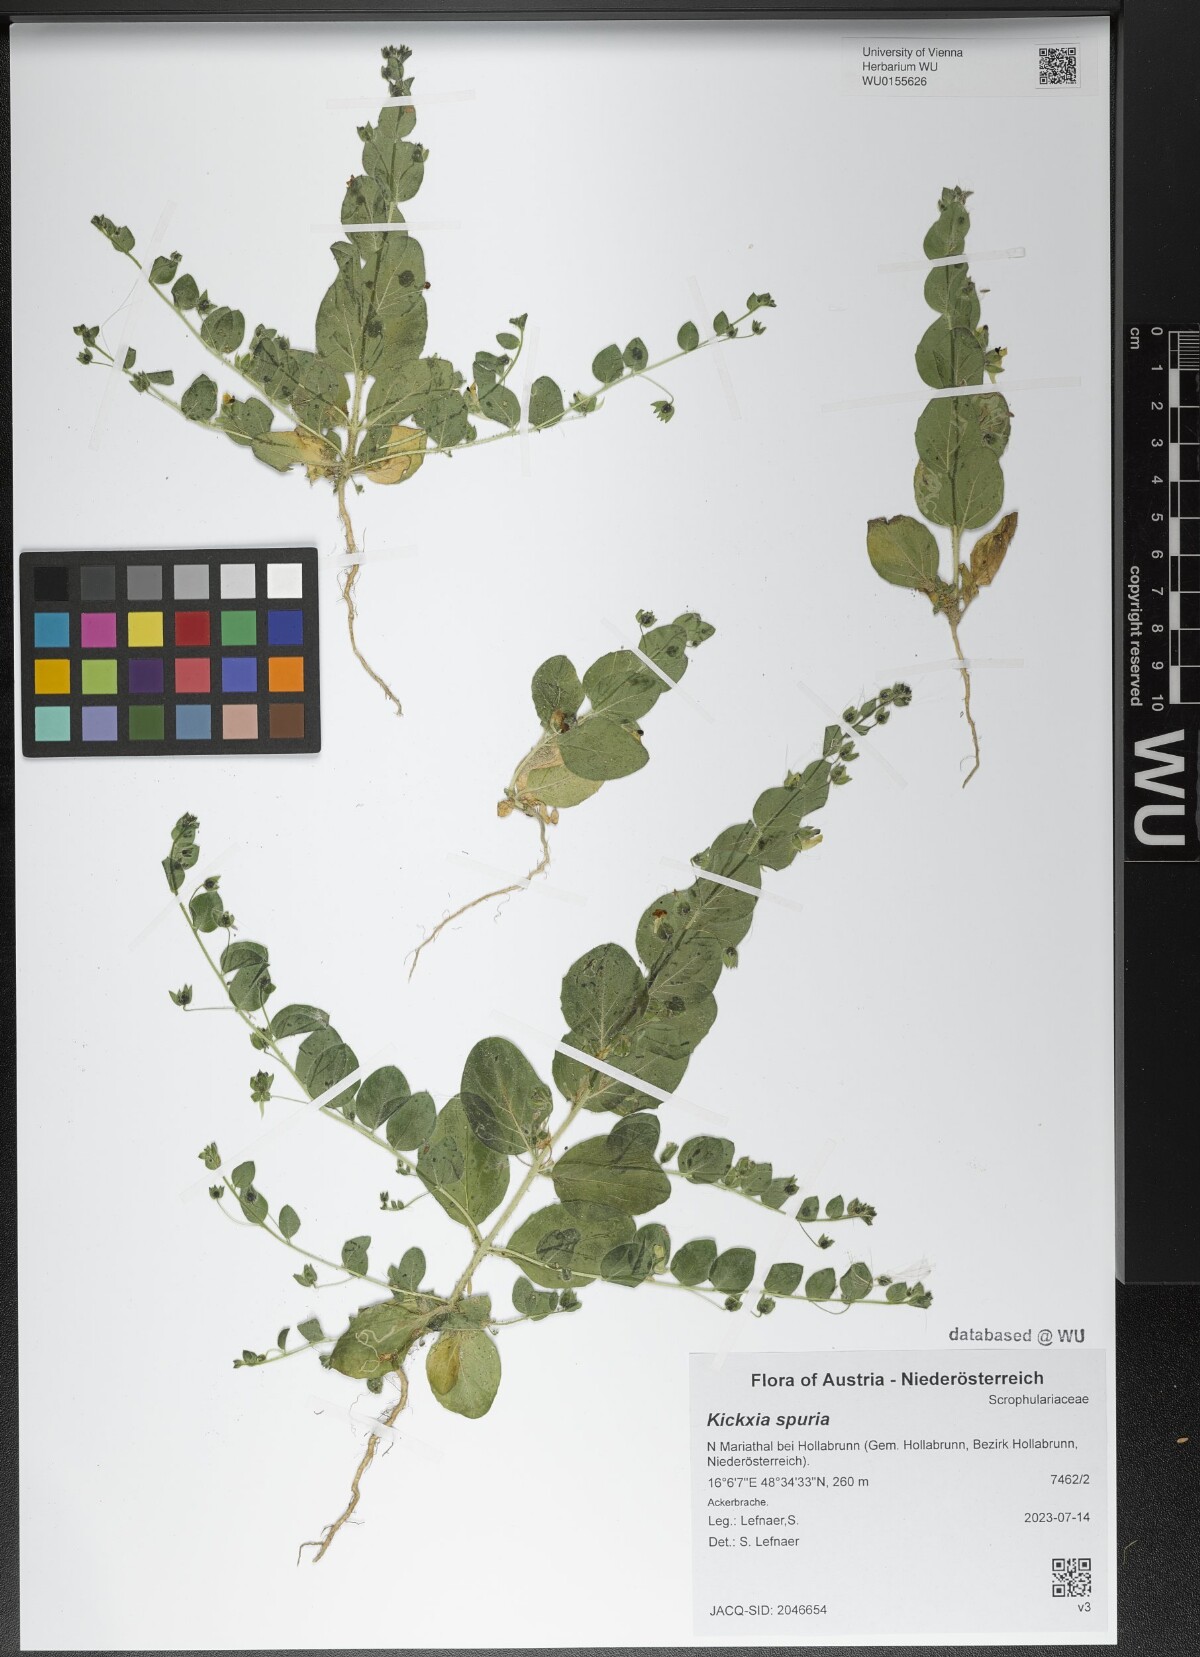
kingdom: Plantae
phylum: Tracheophyta
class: Magnoliopsida
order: Lamiales
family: Plantaginaceae
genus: Kickxia
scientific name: Kickxia spuria
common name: Round-leaved fluellen
